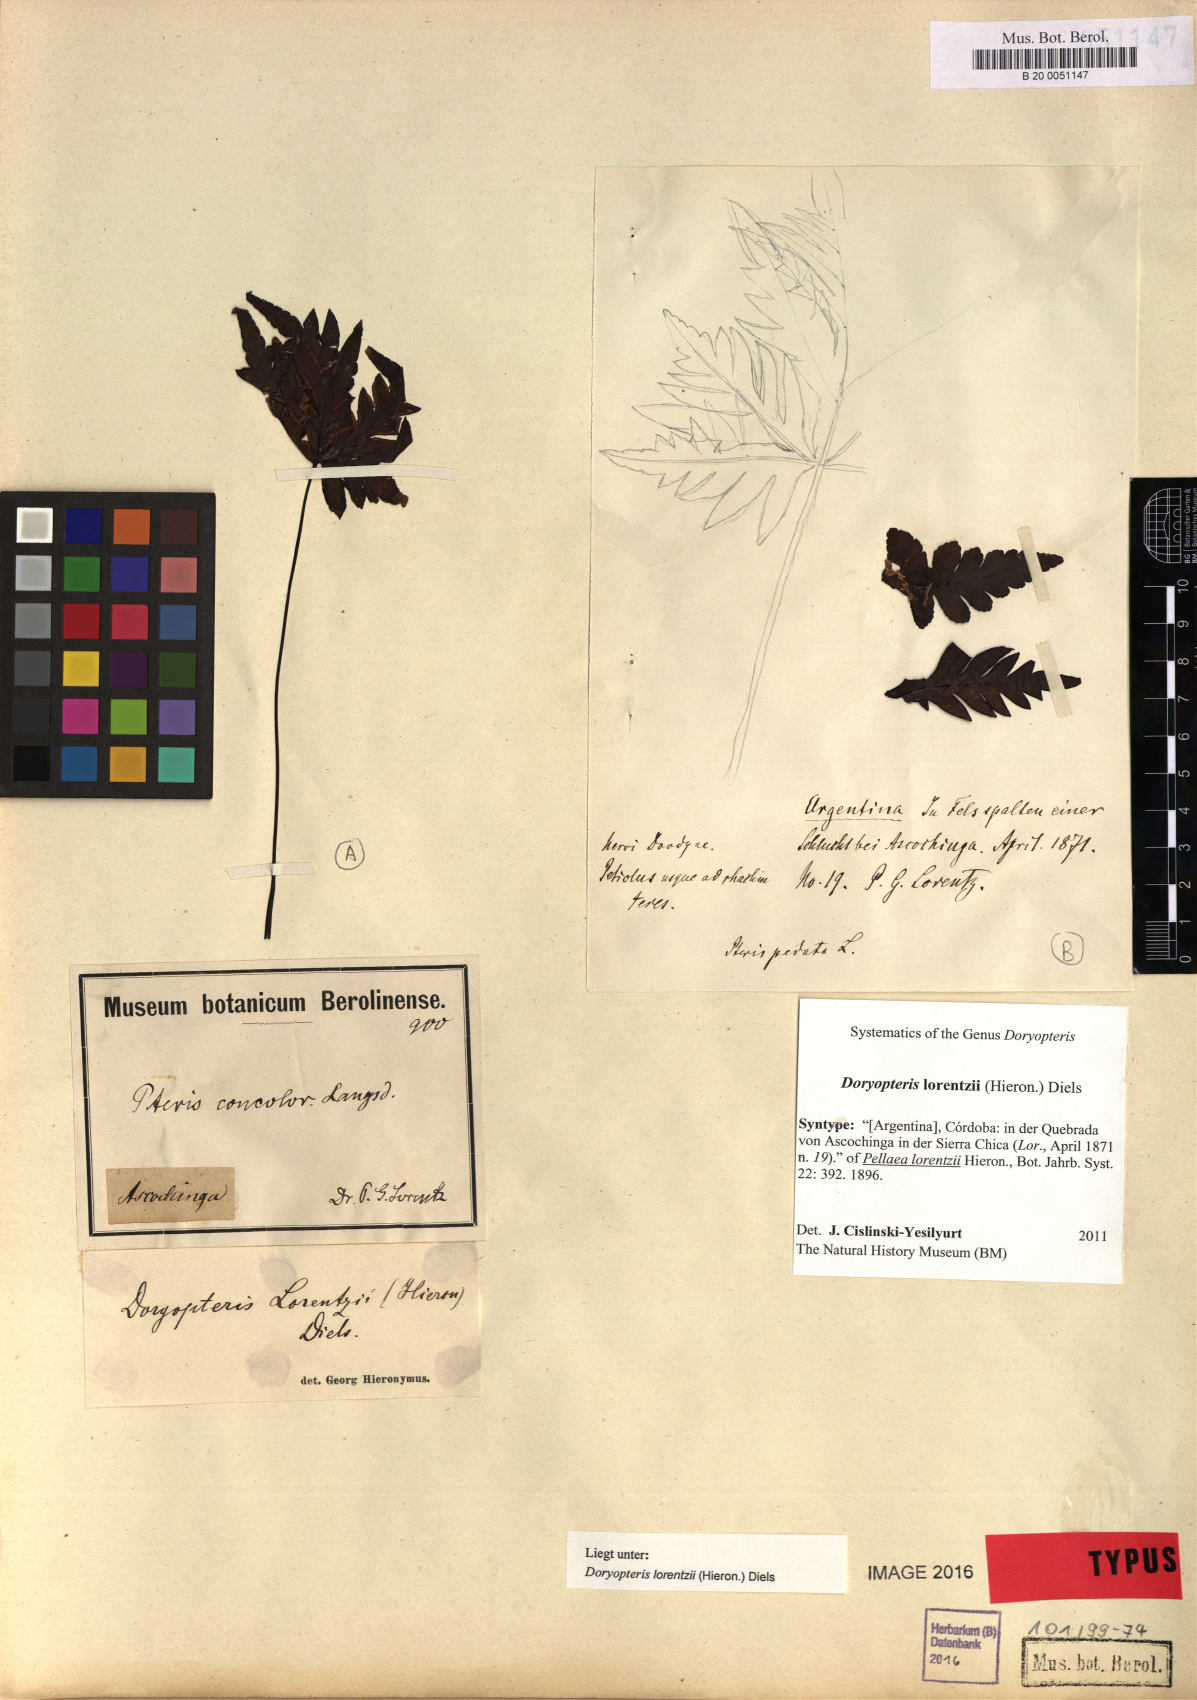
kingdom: Plantae
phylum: Tracheophyta
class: Polypodiopsida
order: Polypodiales
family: Pteridaceae
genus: Doryopteris
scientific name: Doryopteris lorentzii
